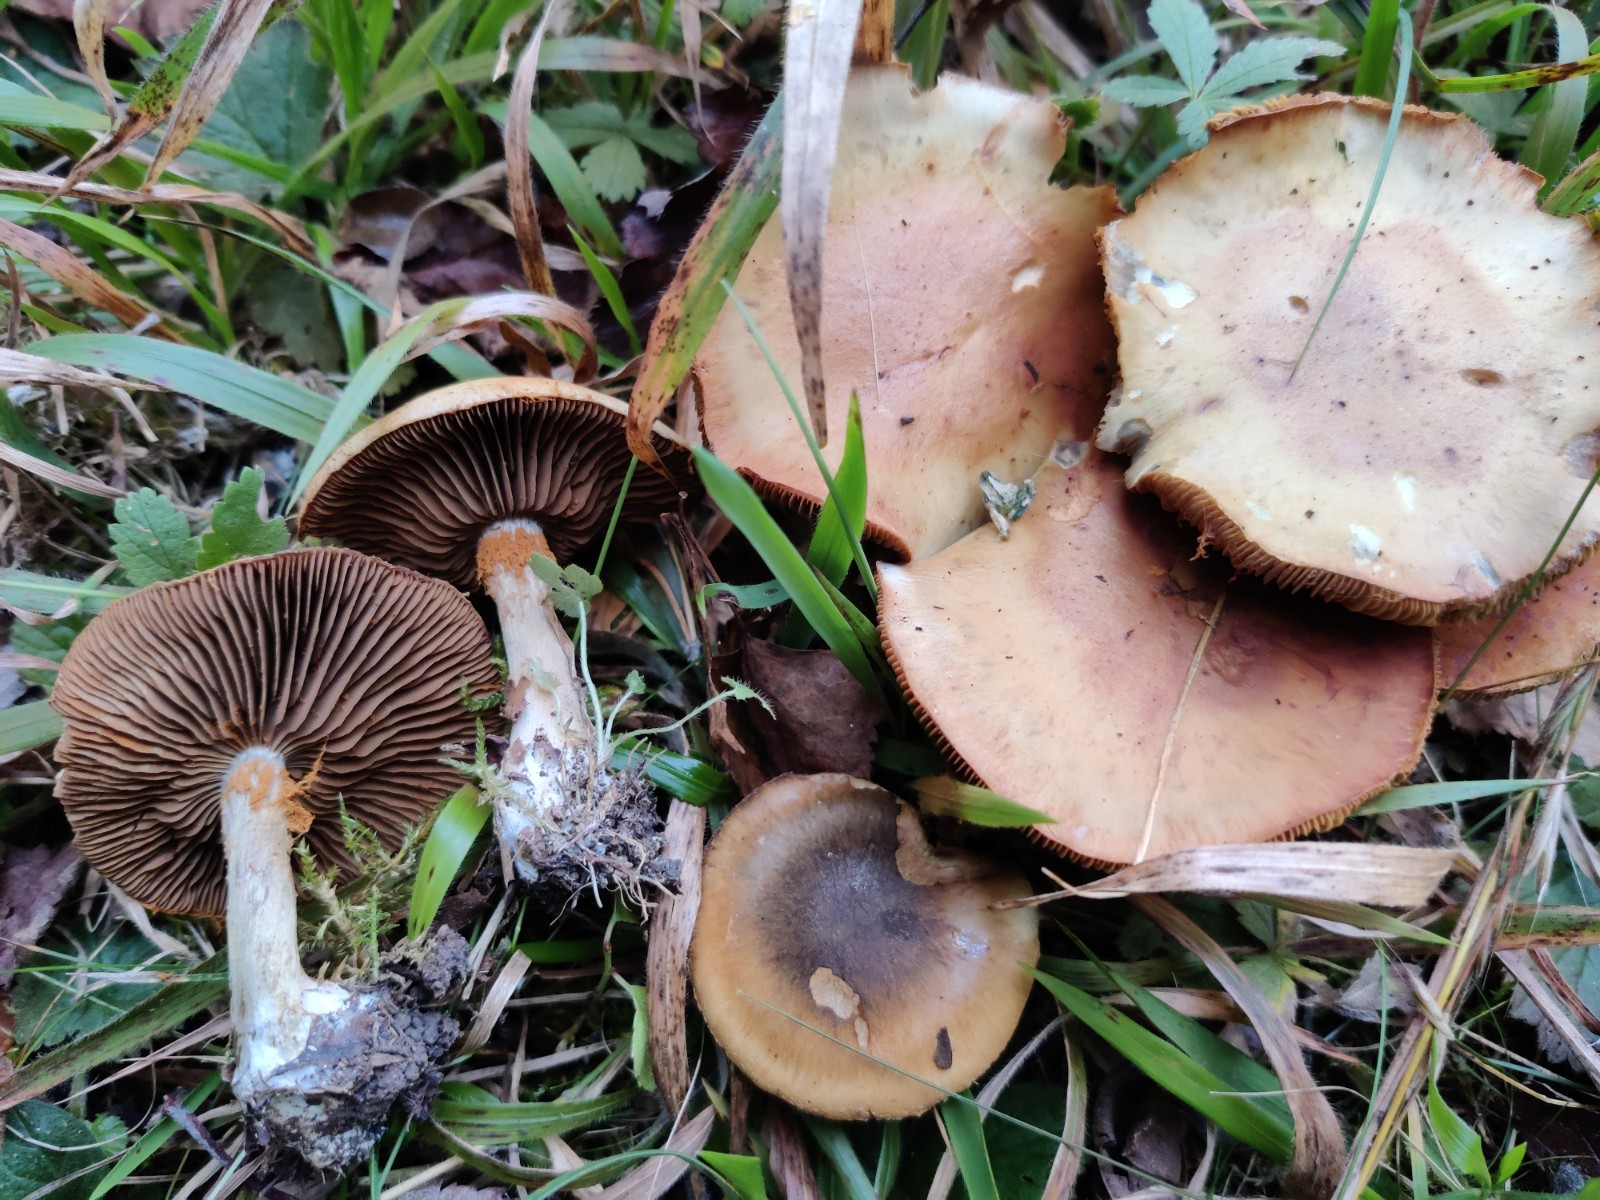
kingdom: Fungi
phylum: Basidiomycota
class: Agaricomycetes
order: Agaricales
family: Cortinariaceae
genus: Cortinarius
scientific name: Cortinarius infractus
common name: galde-slørhat
